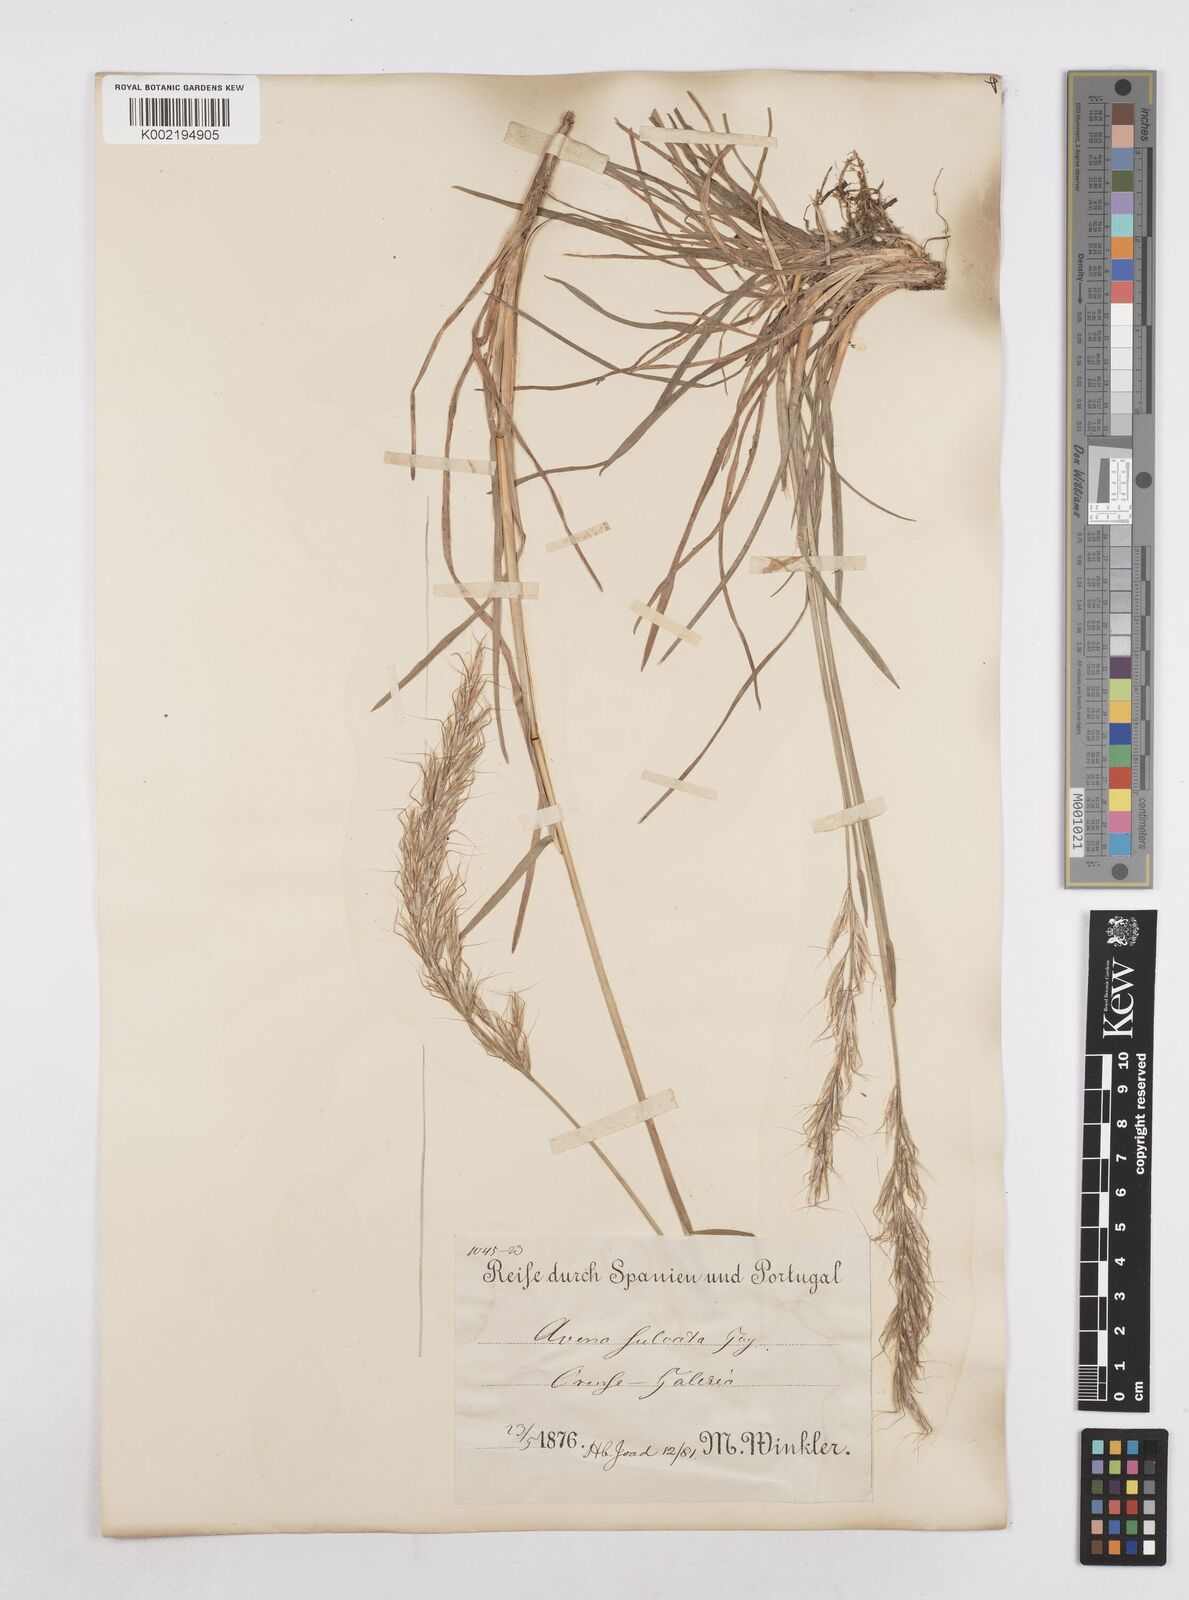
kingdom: Plantae
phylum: Tracheophyta
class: Liliopsida
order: Poales
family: Poaceae
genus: Helictotrichon
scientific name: Helictotrichon
